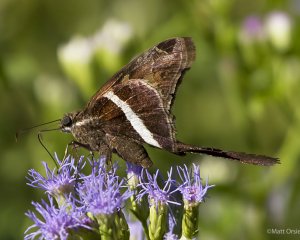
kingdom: Animalia
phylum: Arthropoda
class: Insecta
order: Lepidoptera
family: Hesperiidae
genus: Chioides
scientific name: Chioides catillus
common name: White-striped Longtail
